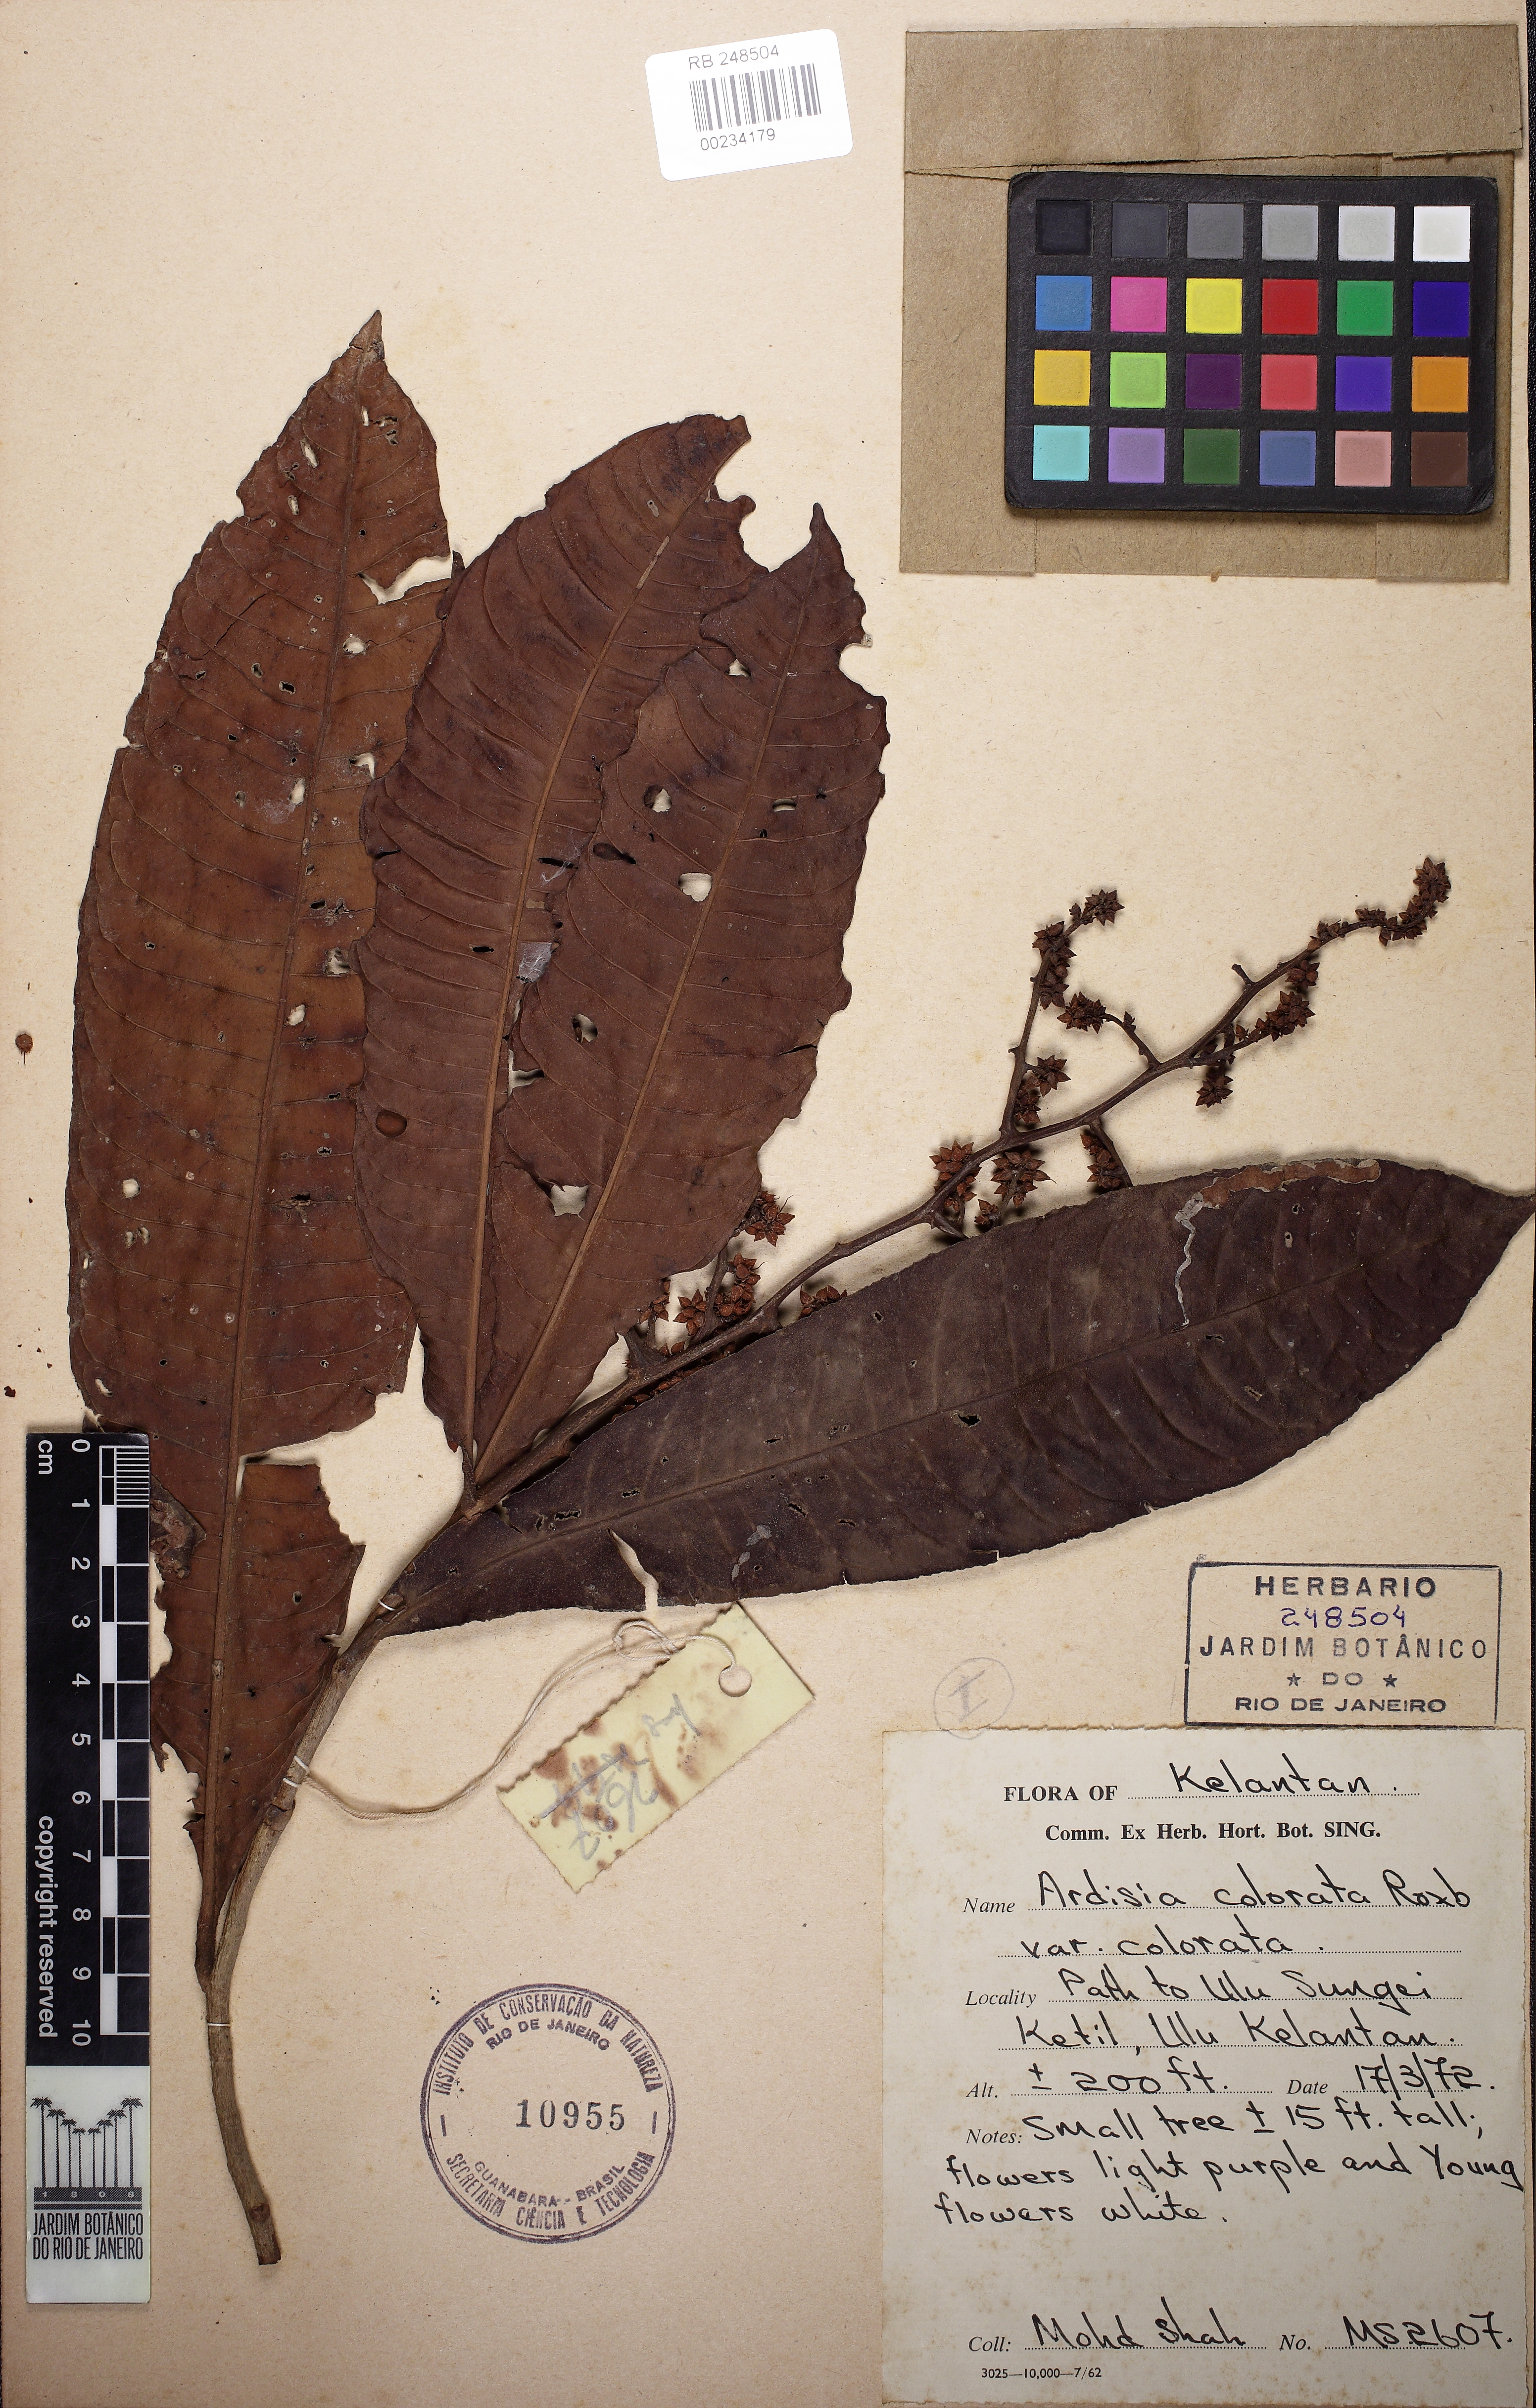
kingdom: Plantae
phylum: Tracheophyta
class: Magnoliopsida
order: Ericales
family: Primulaceae
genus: Ardisia
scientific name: Ardisia colorata
